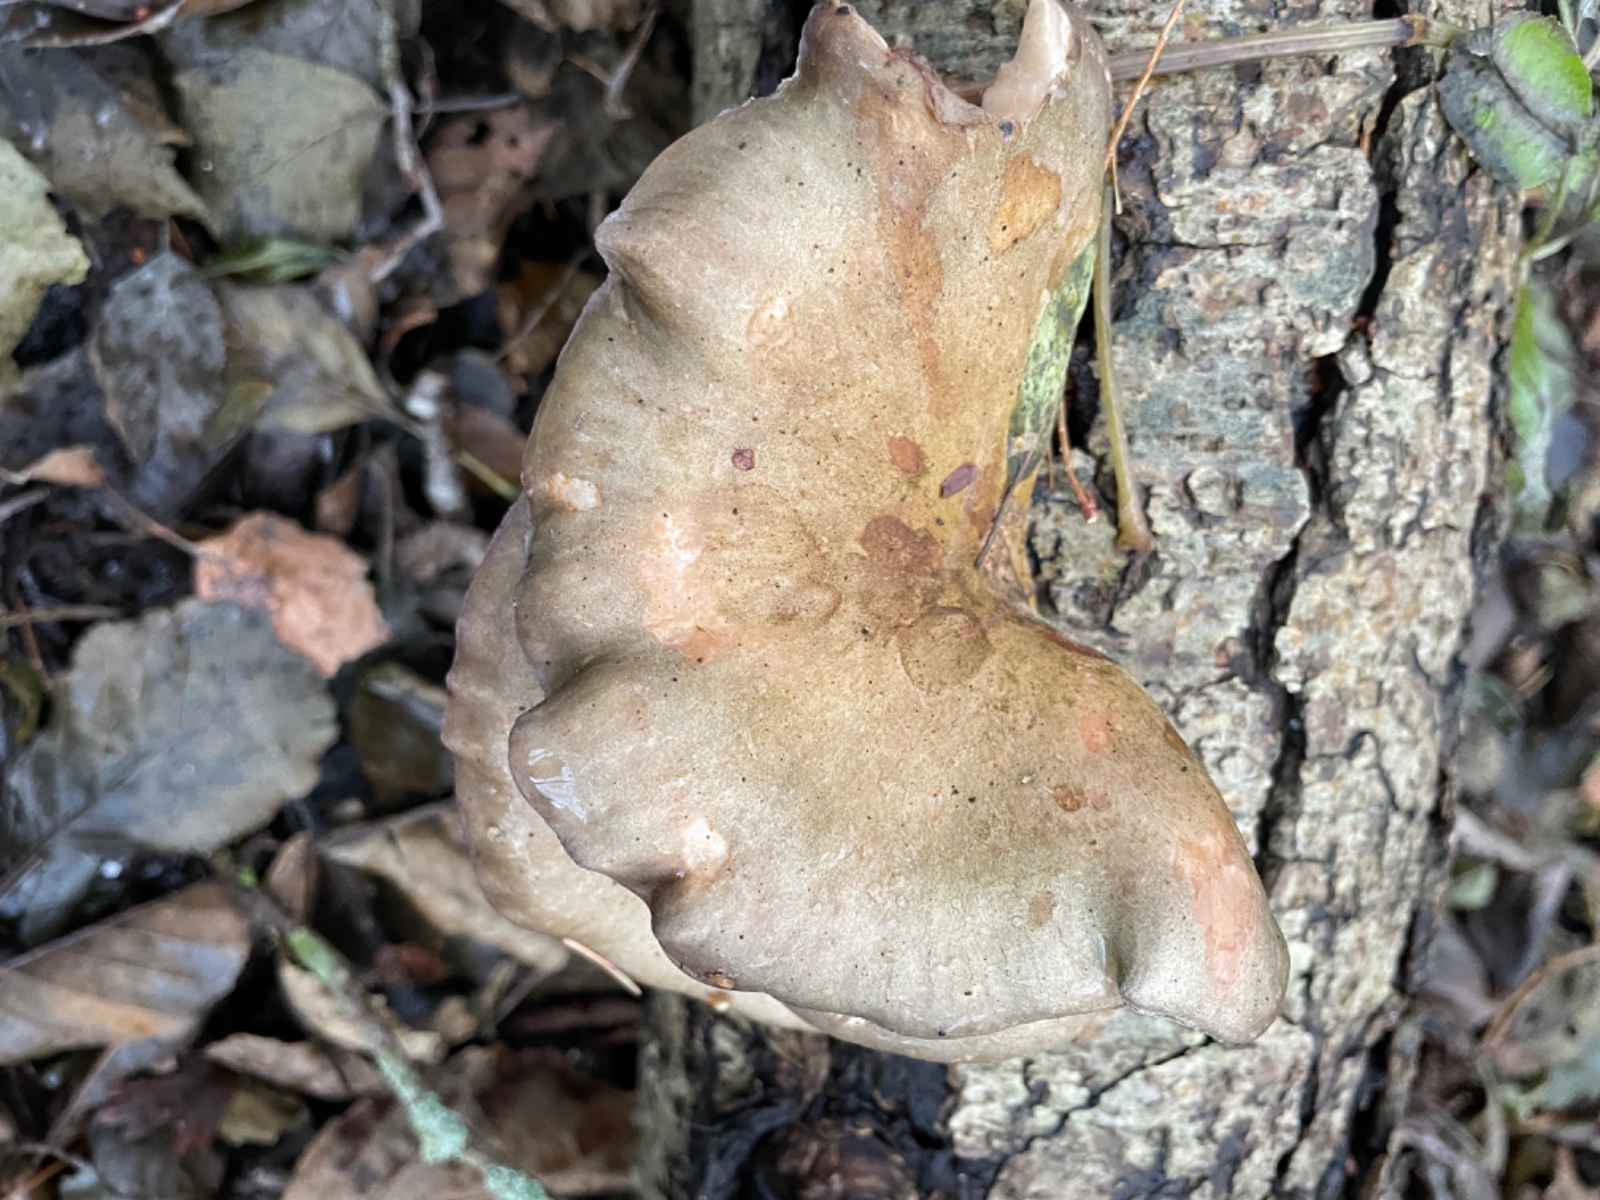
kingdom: Fungi
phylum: Basidiomycota
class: Agaricomycetes
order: Agaricales
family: Sarcomyxaceae
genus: Sarcomyxa
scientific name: Sarcomyxa serotina
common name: gummihat
